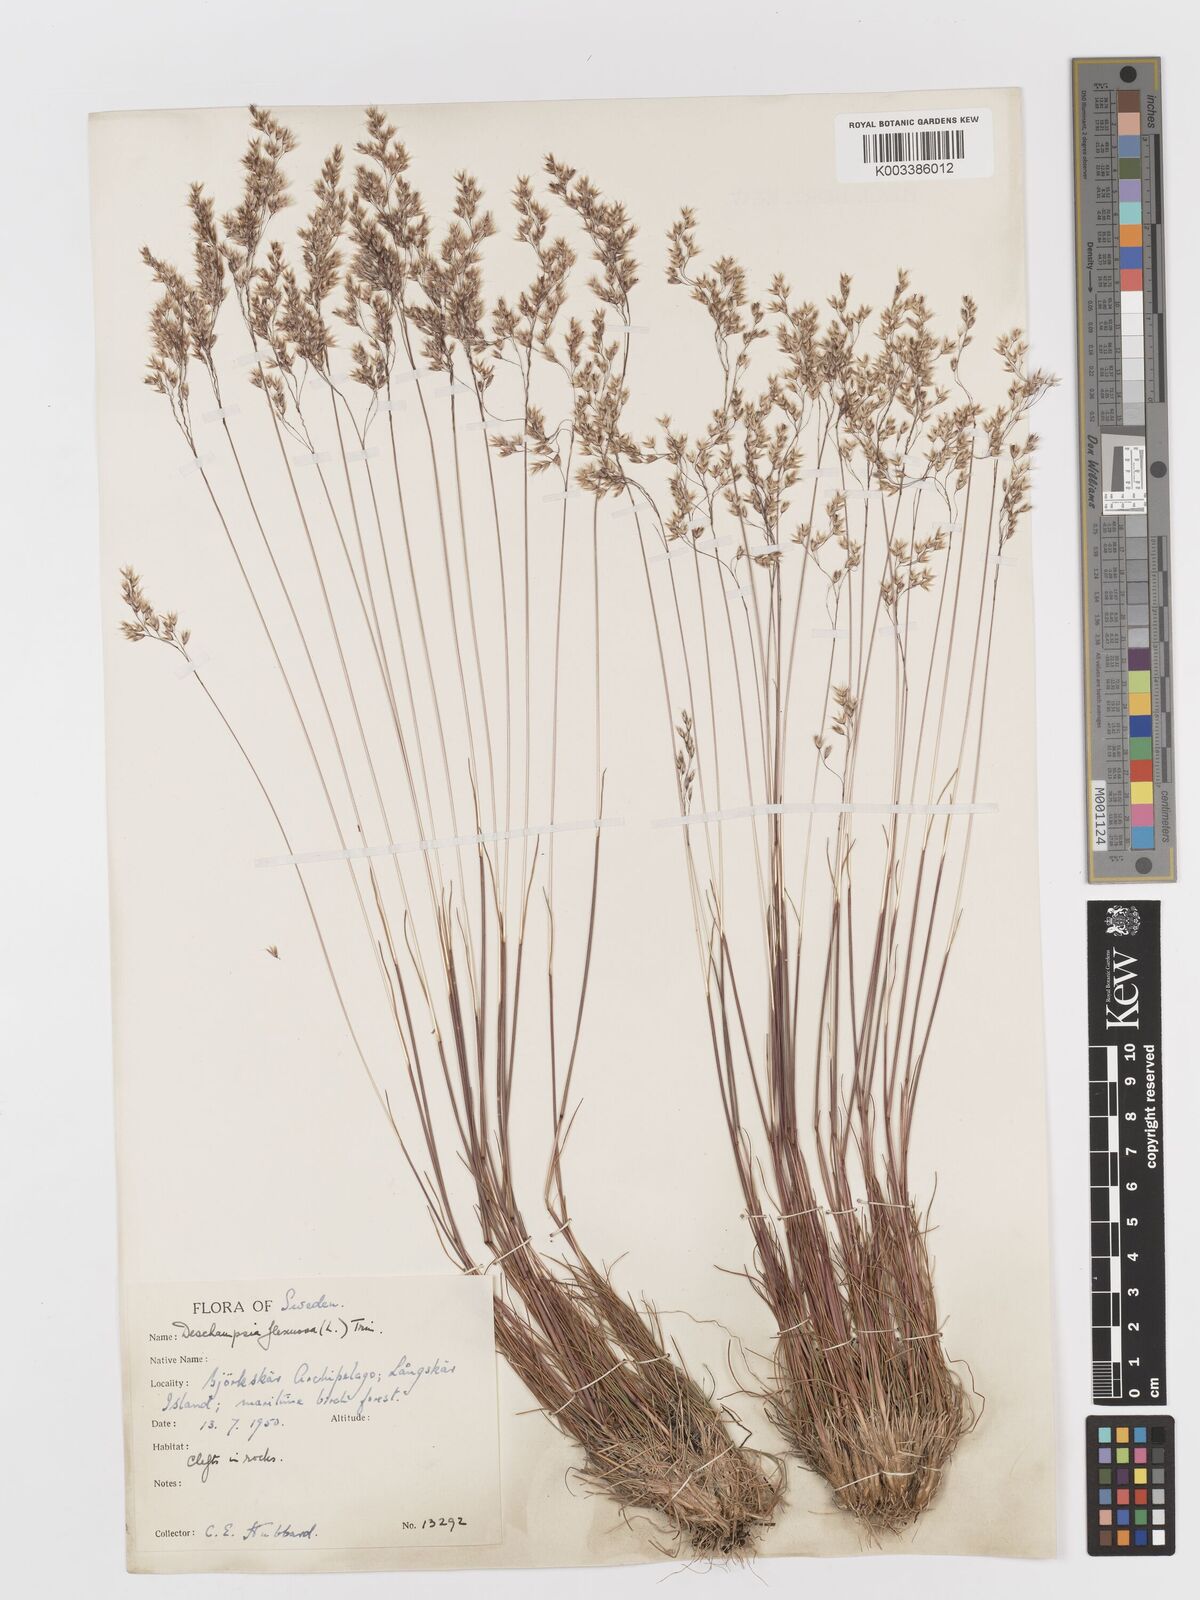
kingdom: Plantae
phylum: Tracheophyta
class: Liliopsida
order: Poales
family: Poaceae
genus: Avenella
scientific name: Avenella flexuosa
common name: Wavy hairgrass
